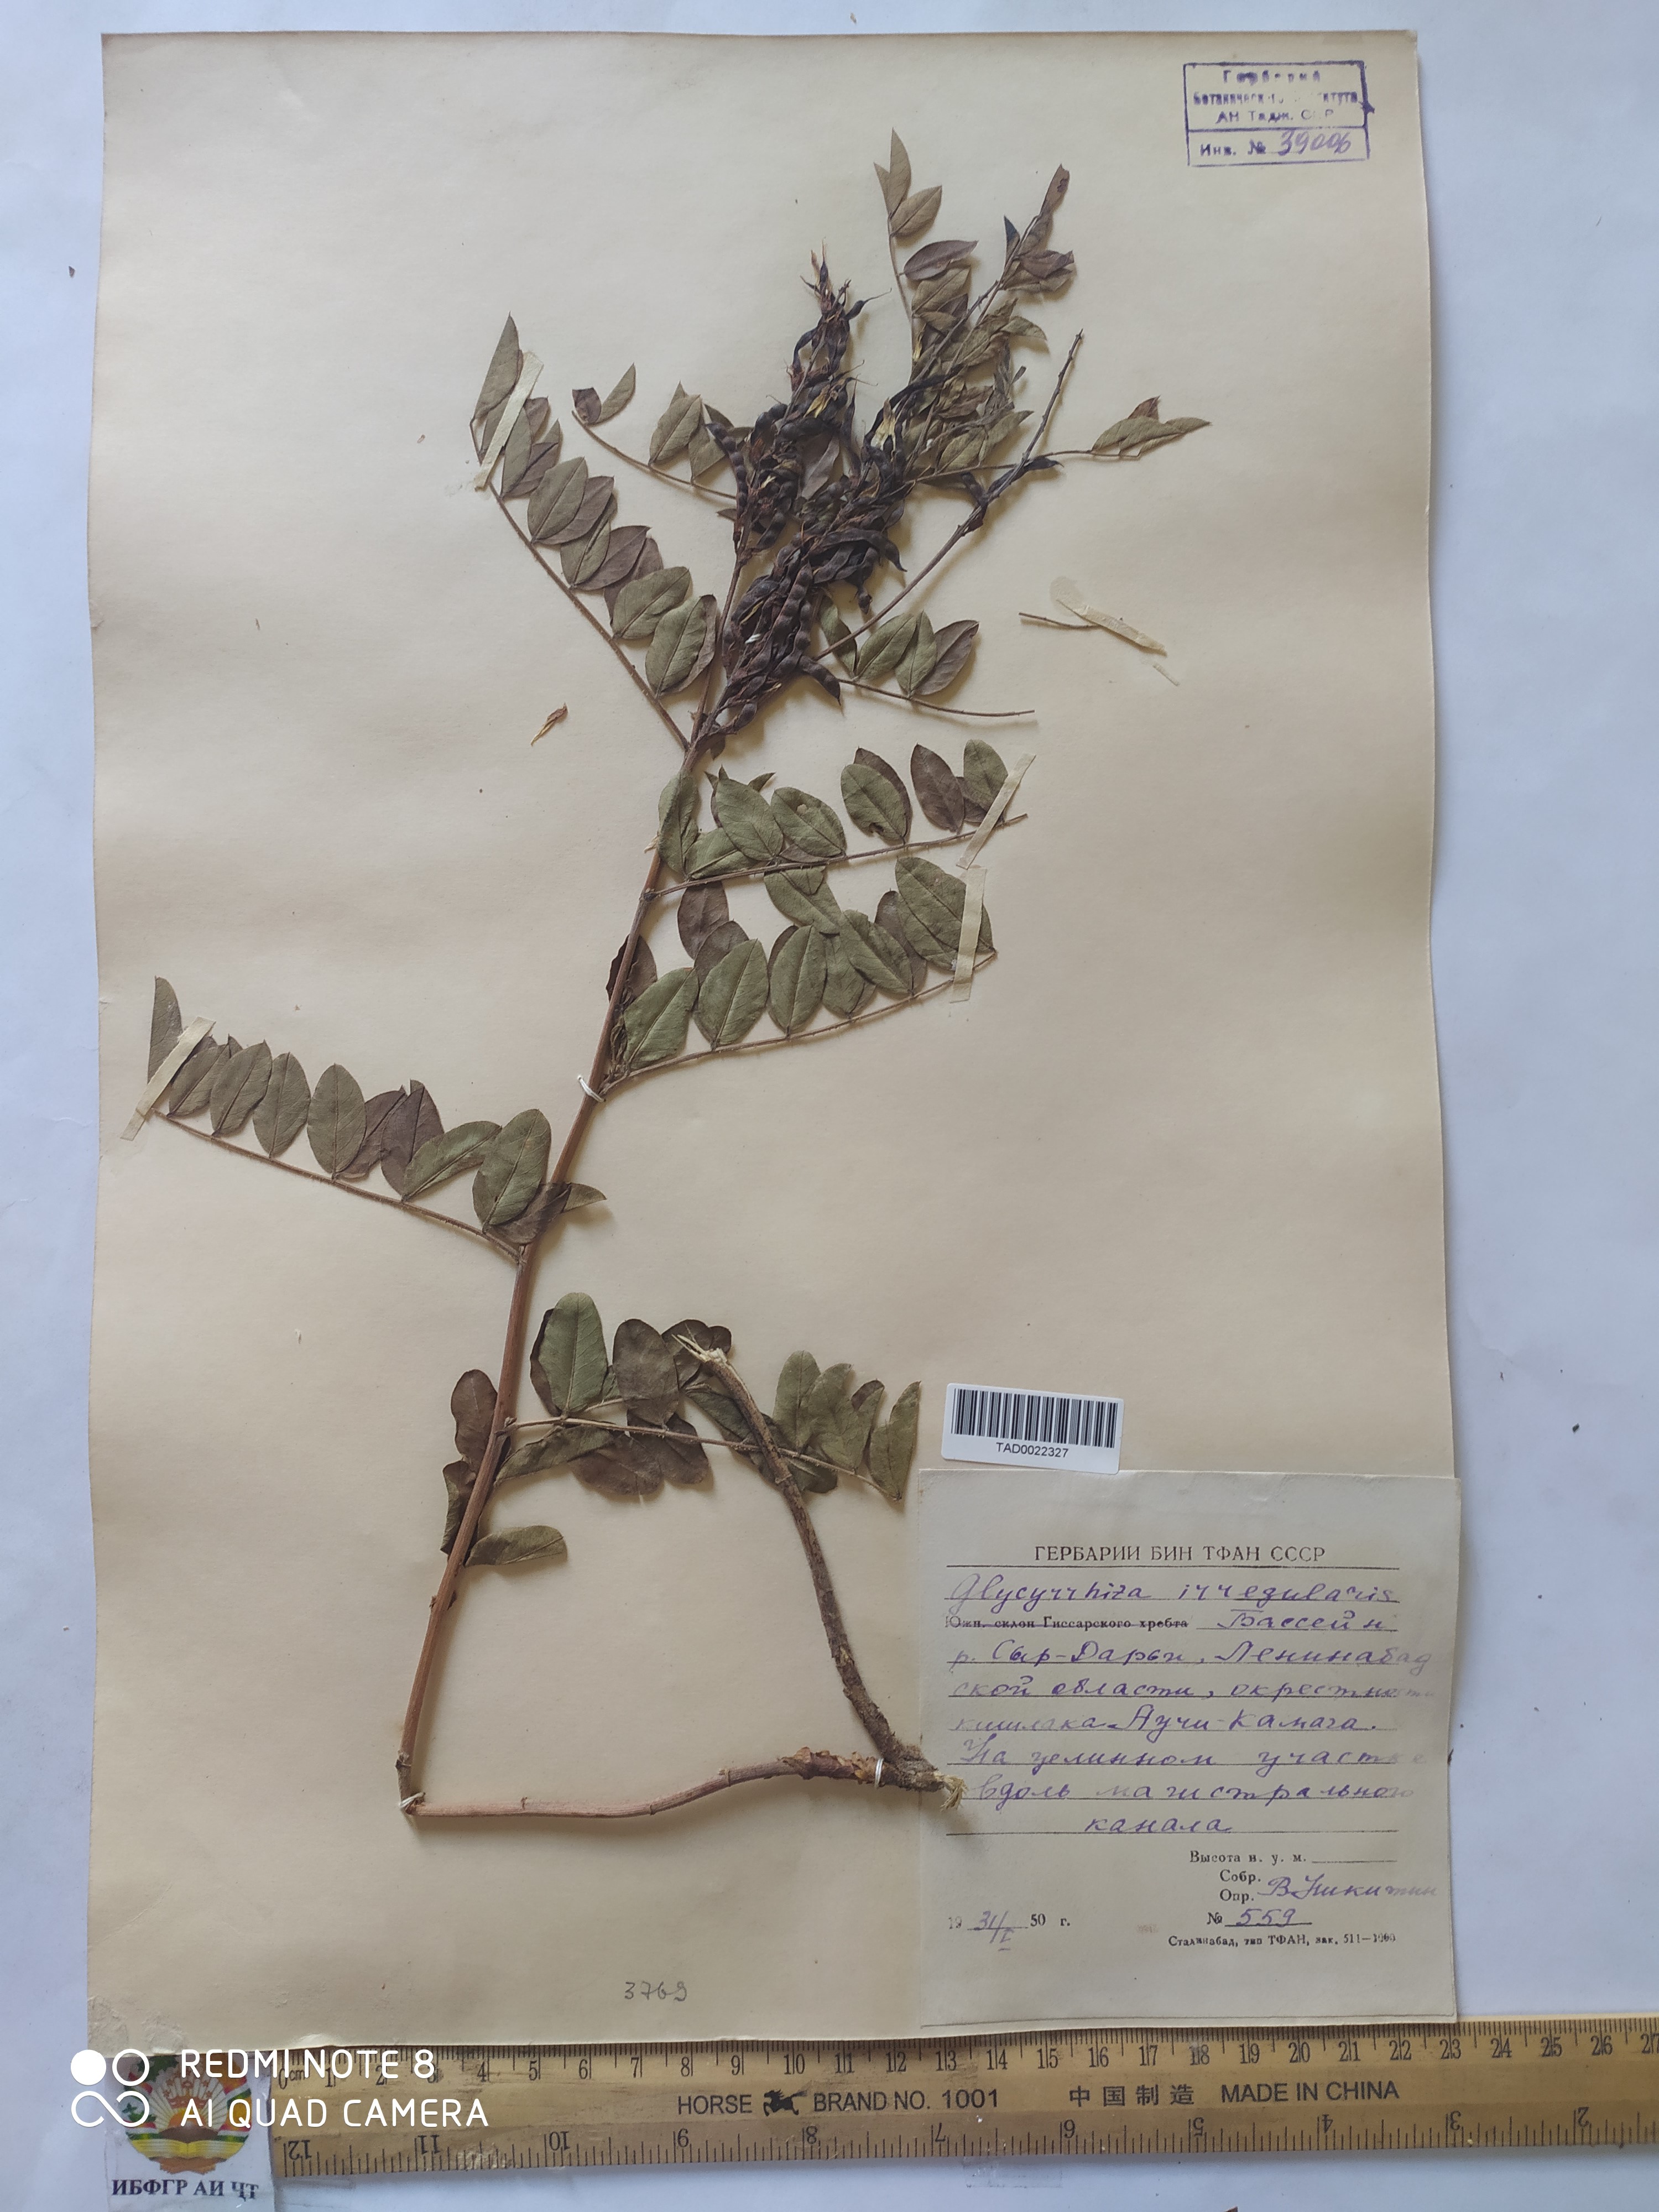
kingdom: Plantae
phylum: Tracheophyta
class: Magnoliopsida
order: Fabales
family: Fabaceae
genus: Glycyrrhiza
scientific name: Glycyrrhiza glabra
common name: Liquorice
